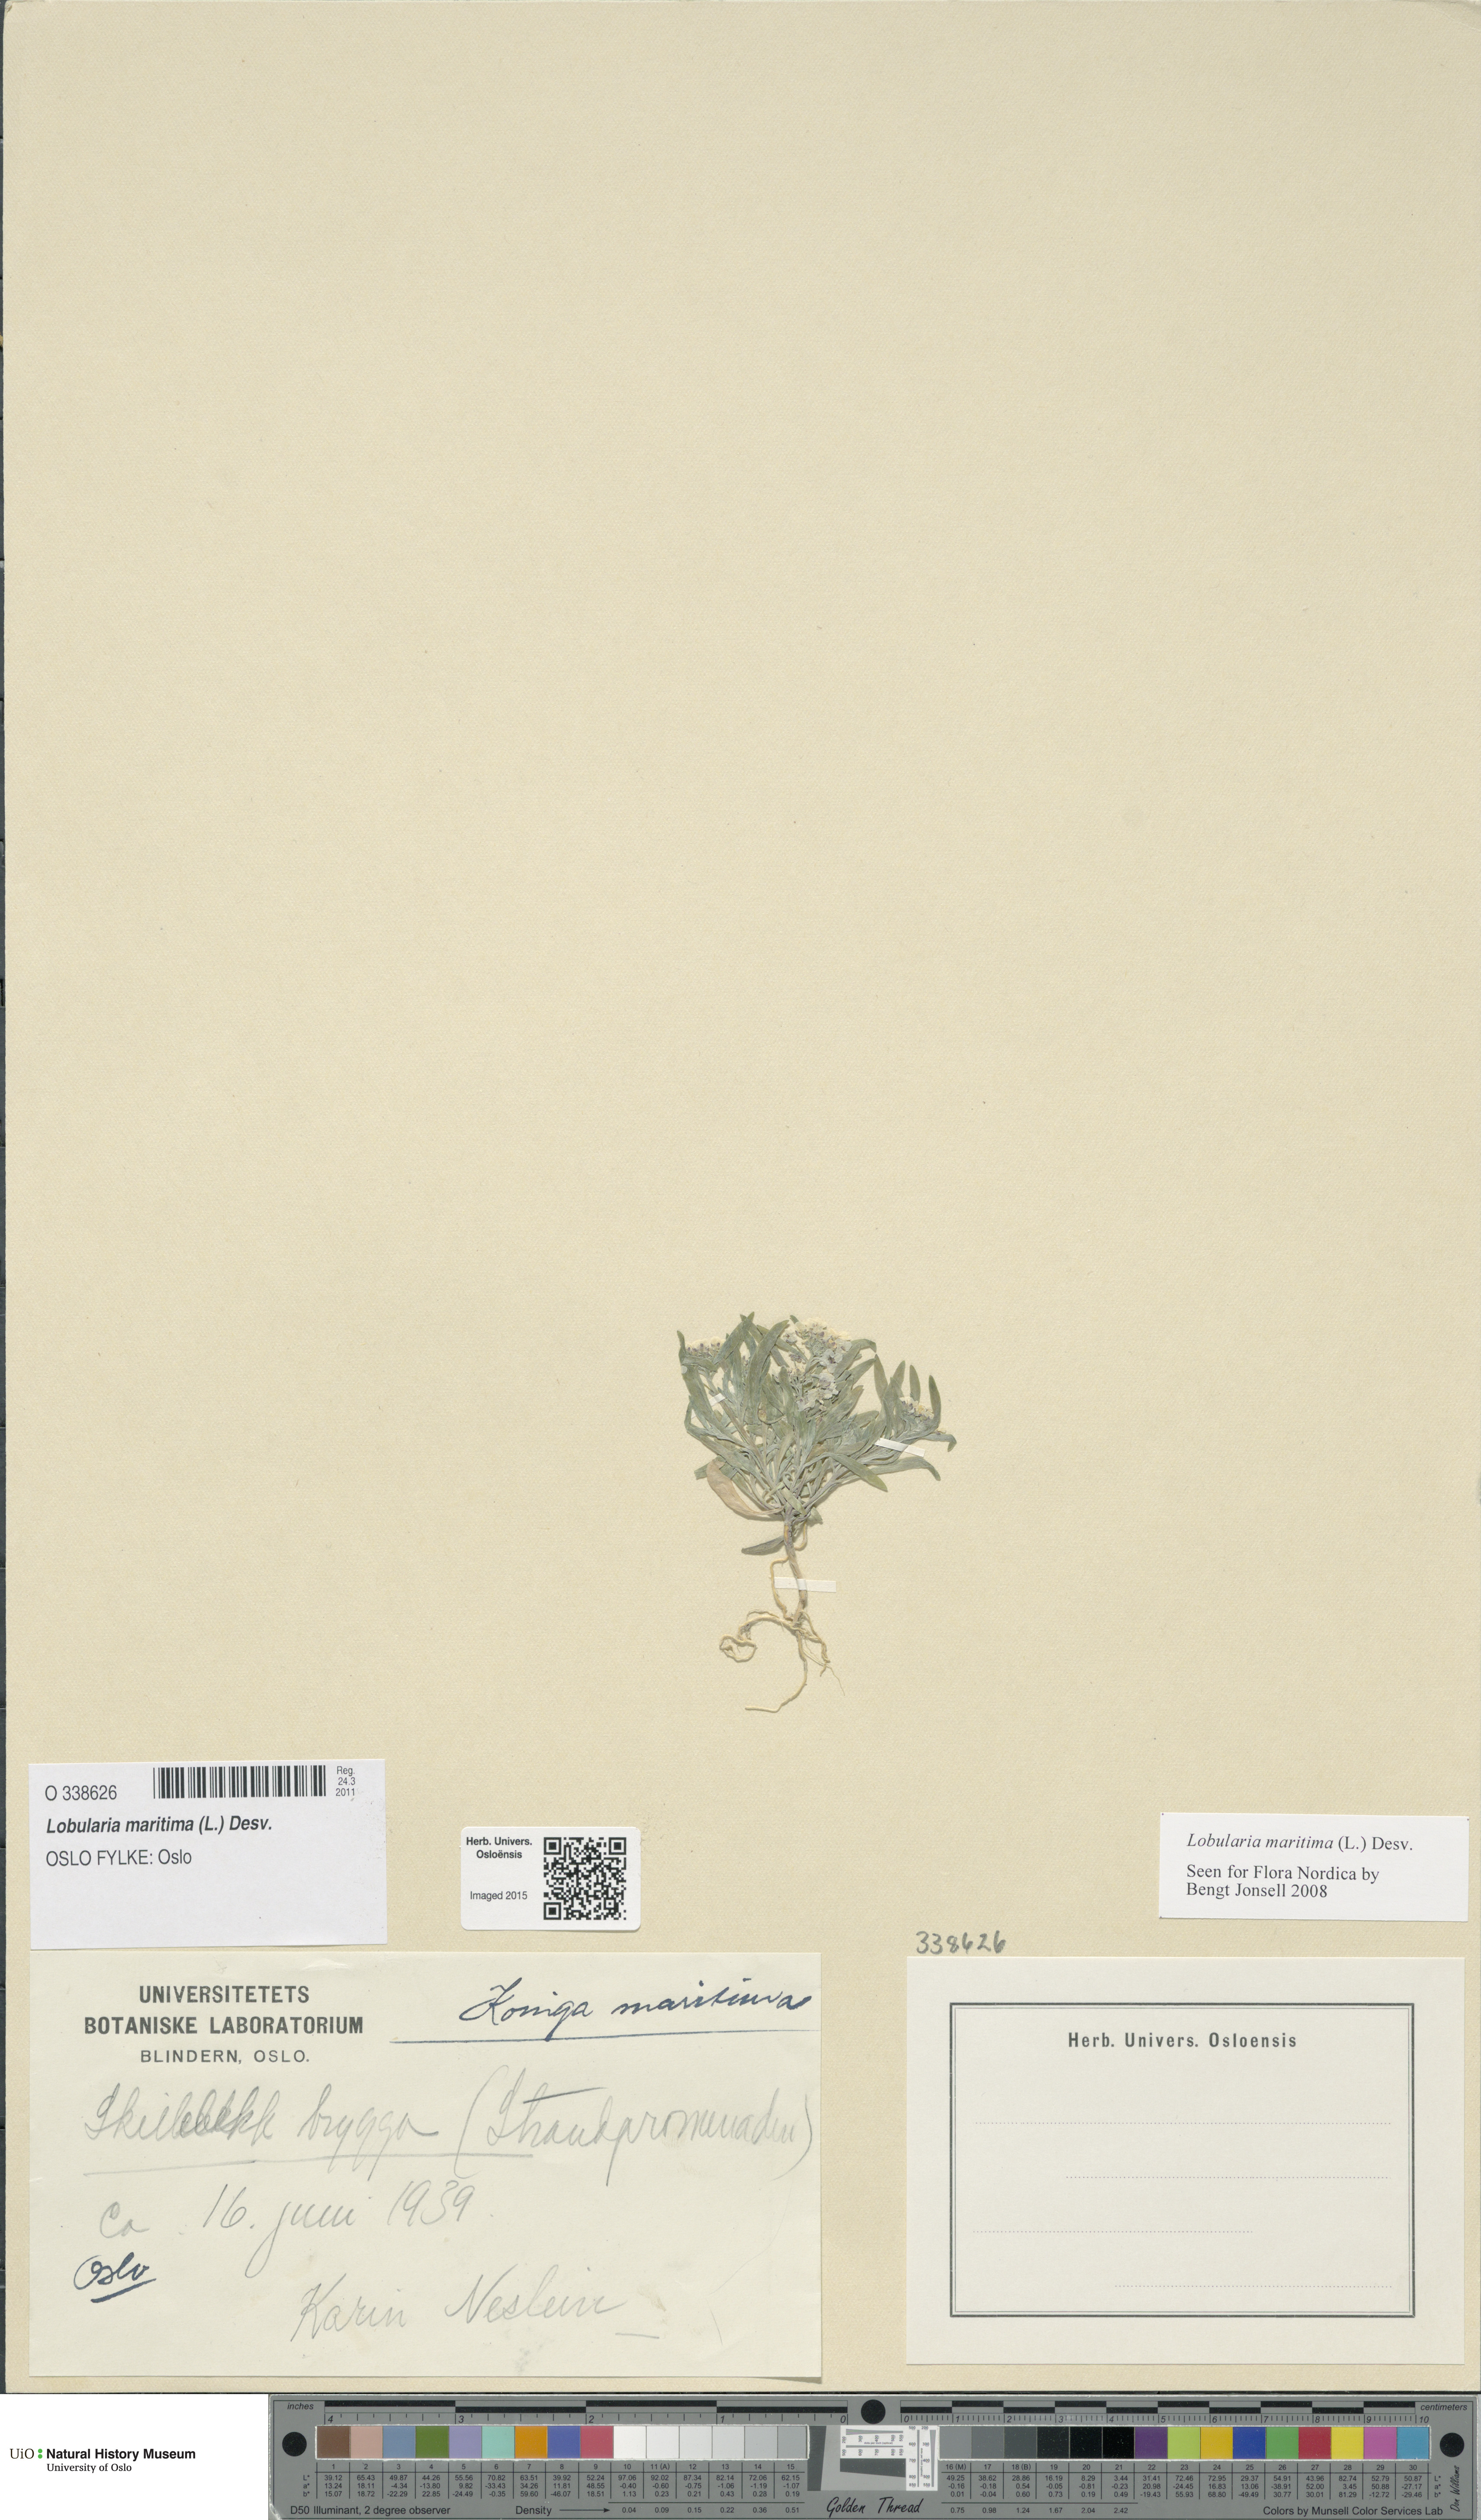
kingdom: Plantae
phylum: Tracheophyta
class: Magnoliopsida
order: Brassicales
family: Brassicaceae
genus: Lobularia
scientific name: Lobularia maritima
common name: Sweet alison
